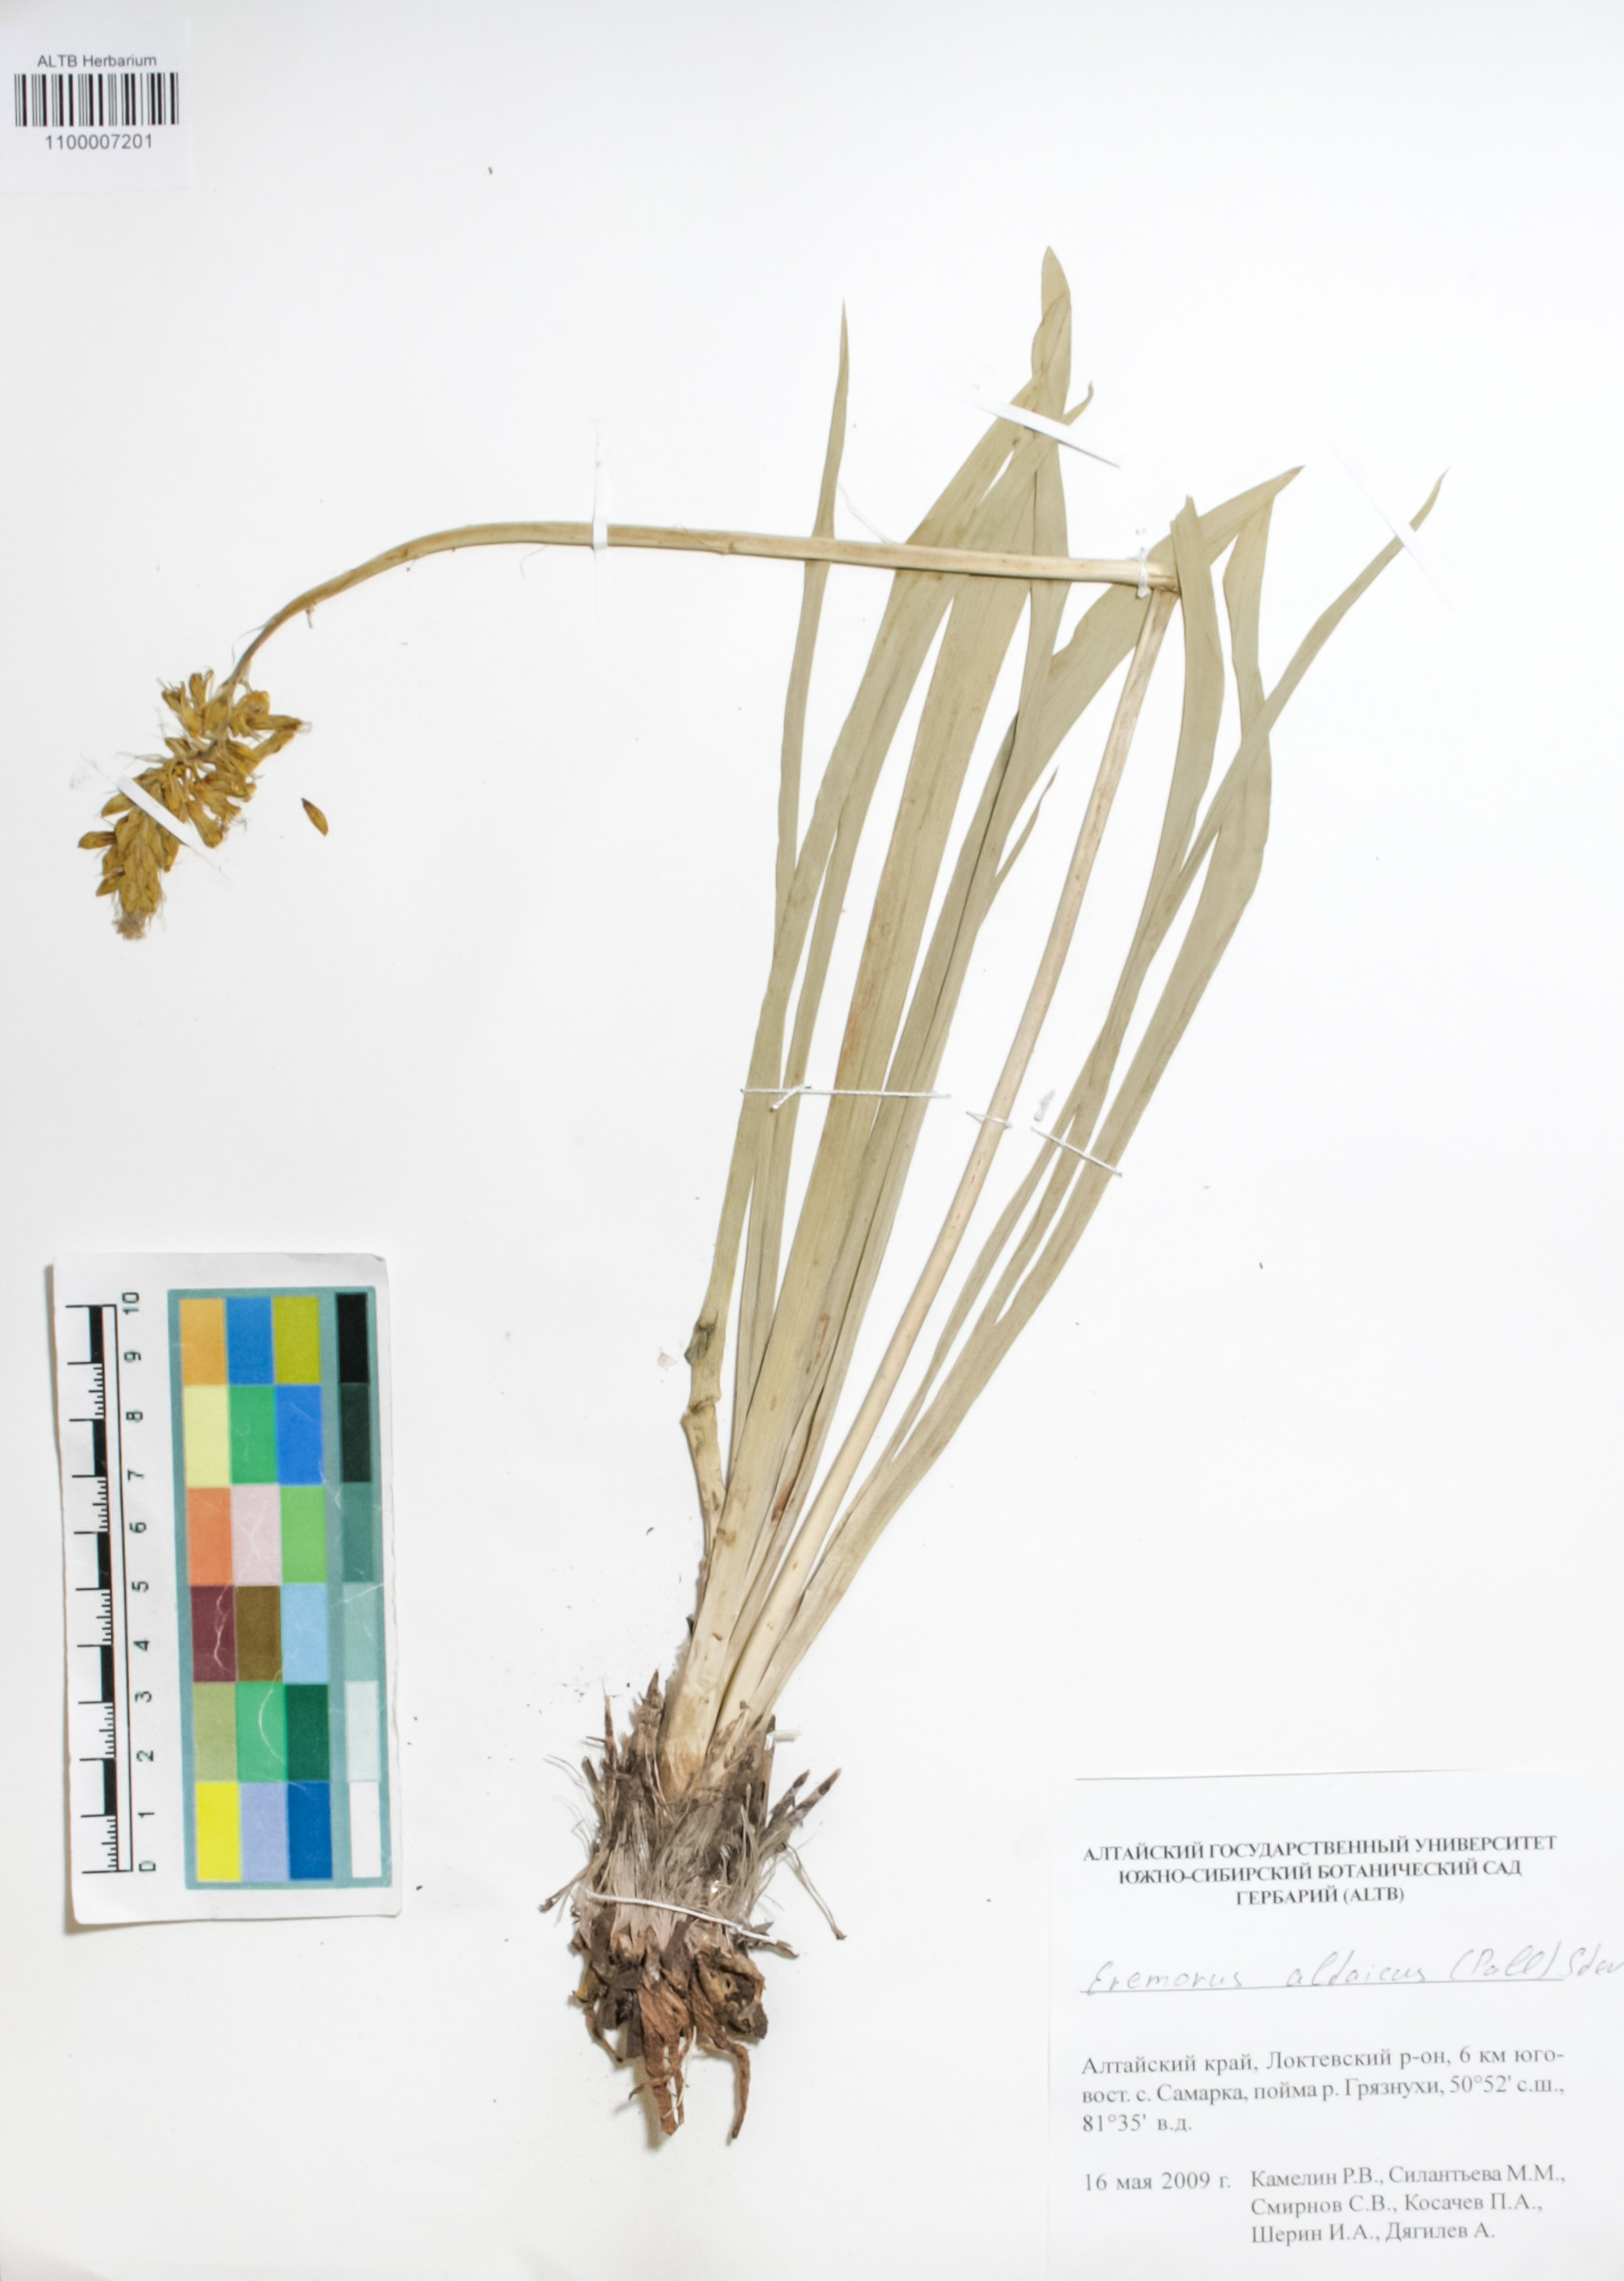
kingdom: Plantae
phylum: Tracheophyta
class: Liliopsida
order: Asparagales
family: Asphodelaceae
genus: Eremurus
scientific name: Eremurus altaicus
